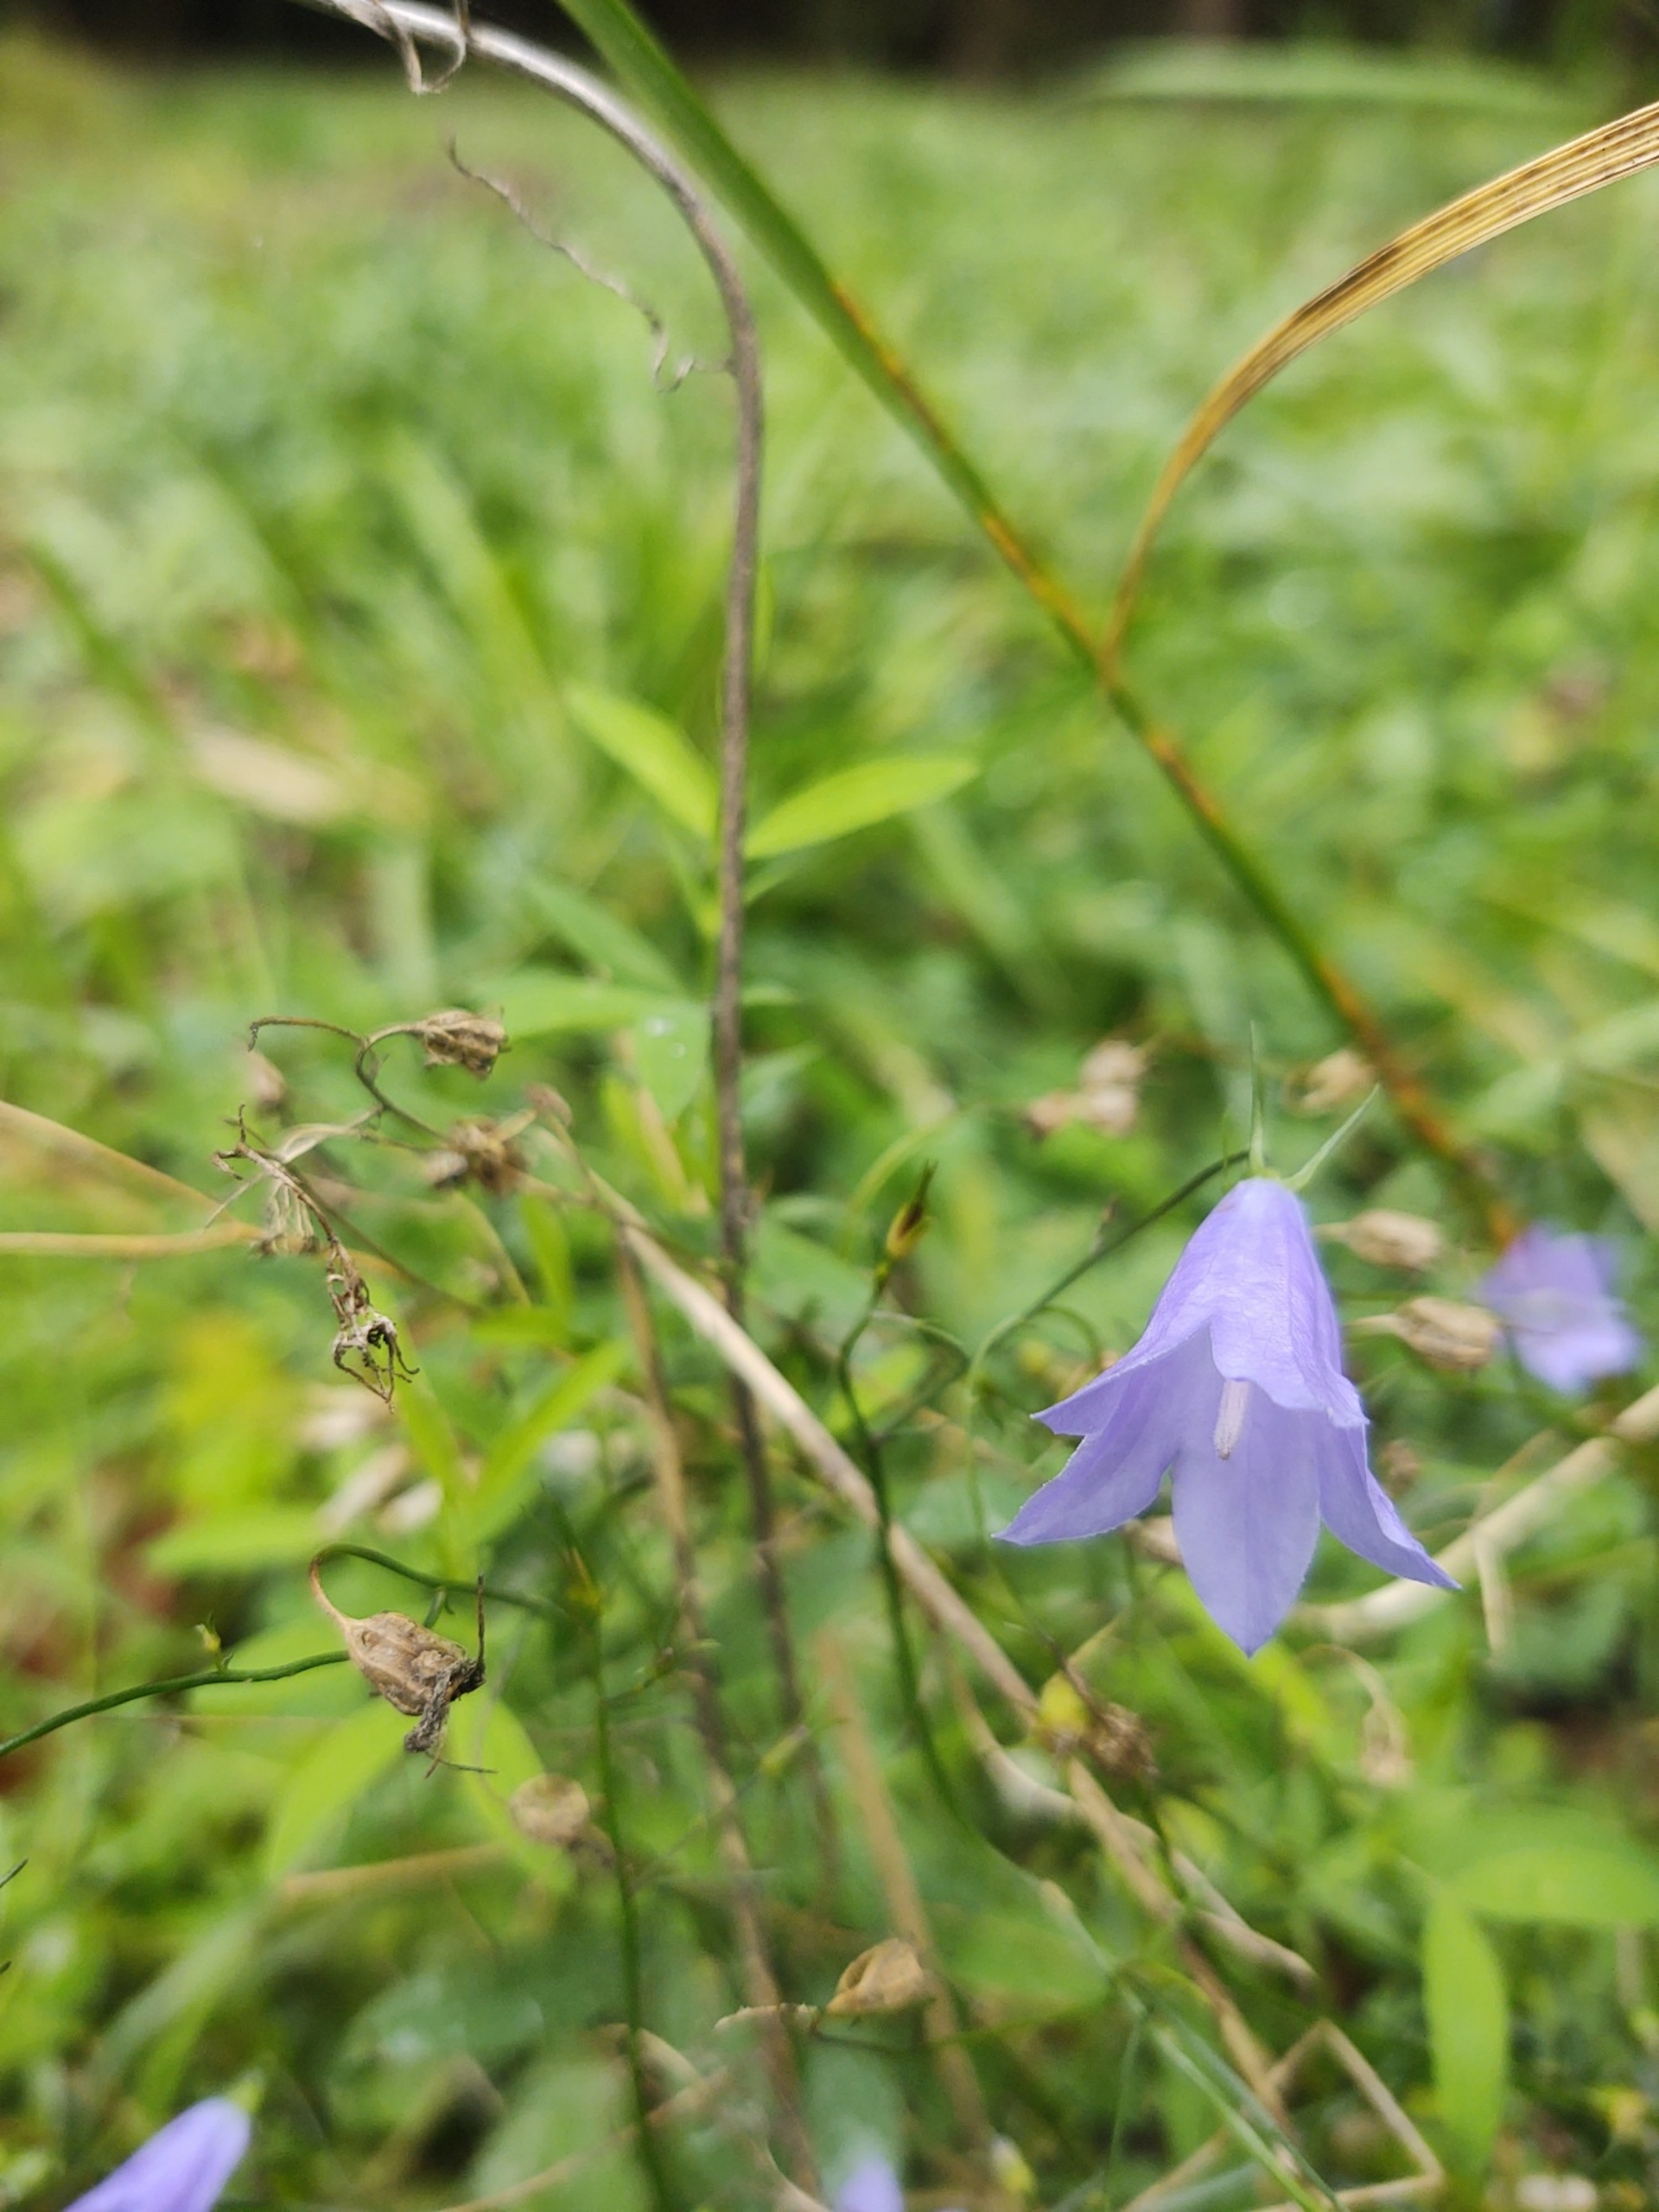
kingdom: Plantae
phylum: Tracheophyta
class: Magnoliopsida
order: Asterales
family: Campanulaceae
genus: Campanula
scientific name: Campanula rotundifolia
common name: Liden klokke
